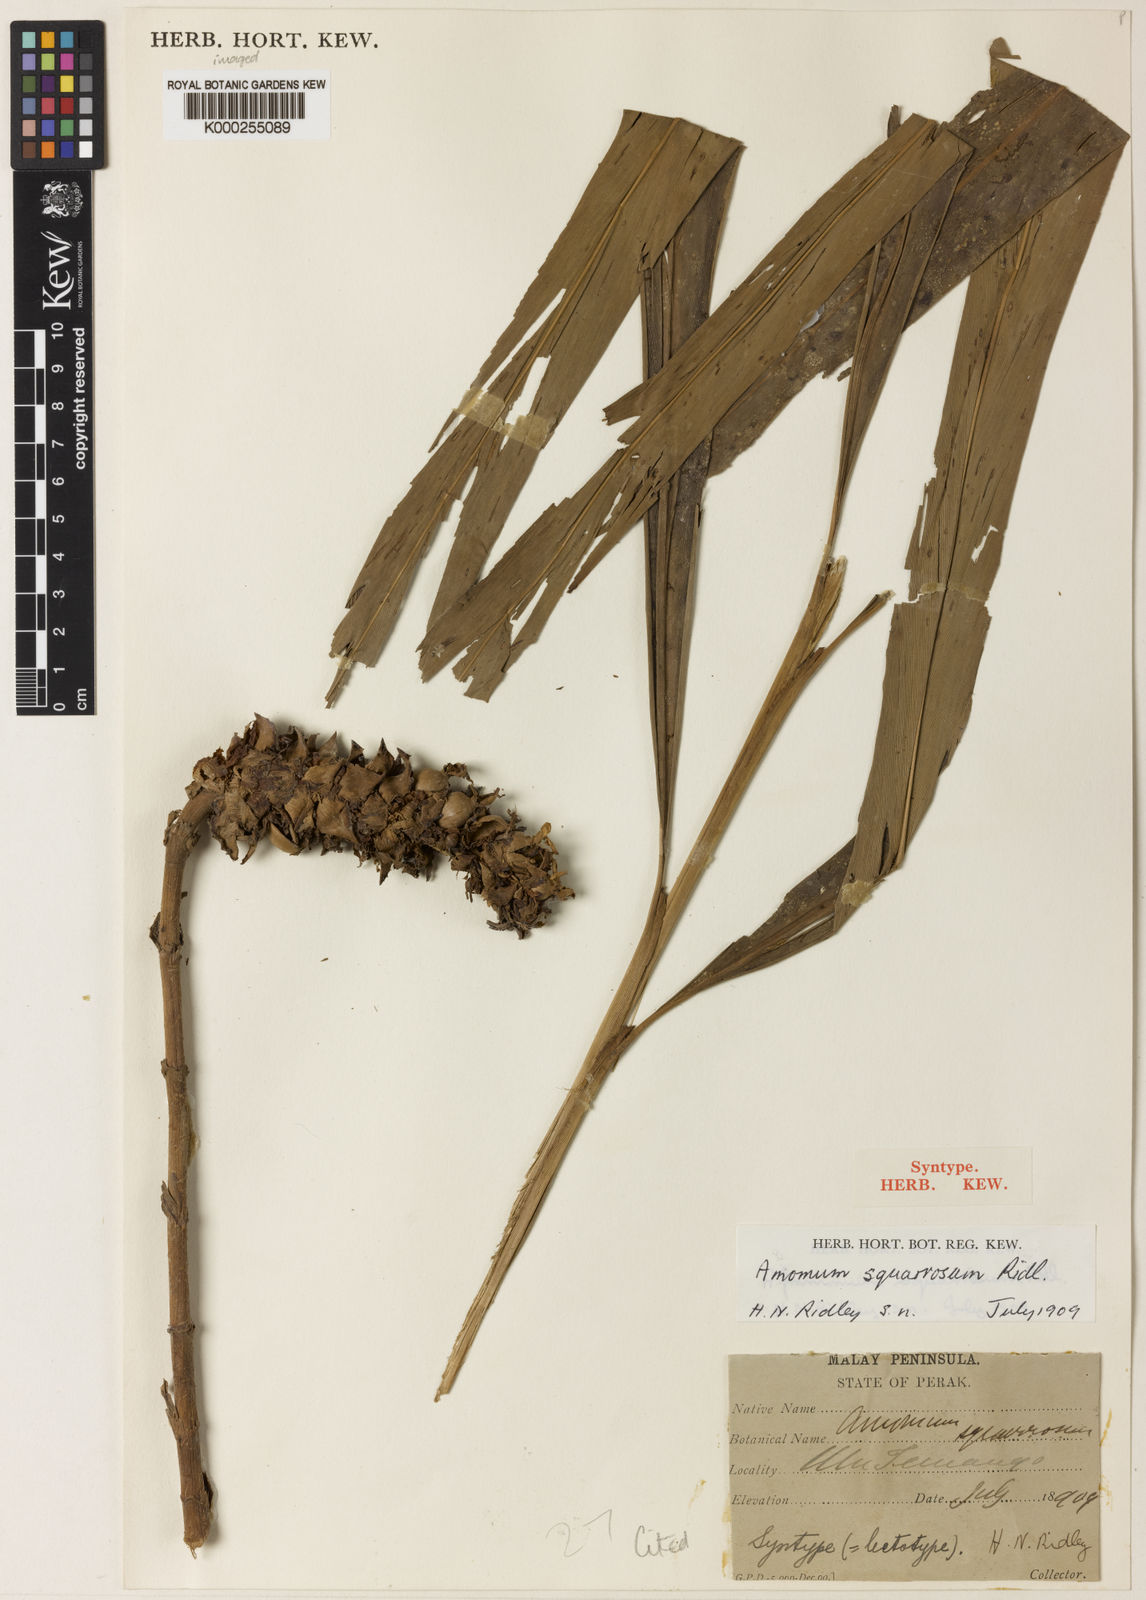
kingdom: Plantae
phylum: Tracheophyta
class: Liliopsida
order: Zingiberales
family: Zingiberaceae
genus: Conamomum
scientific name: Conamomum squarrosum
